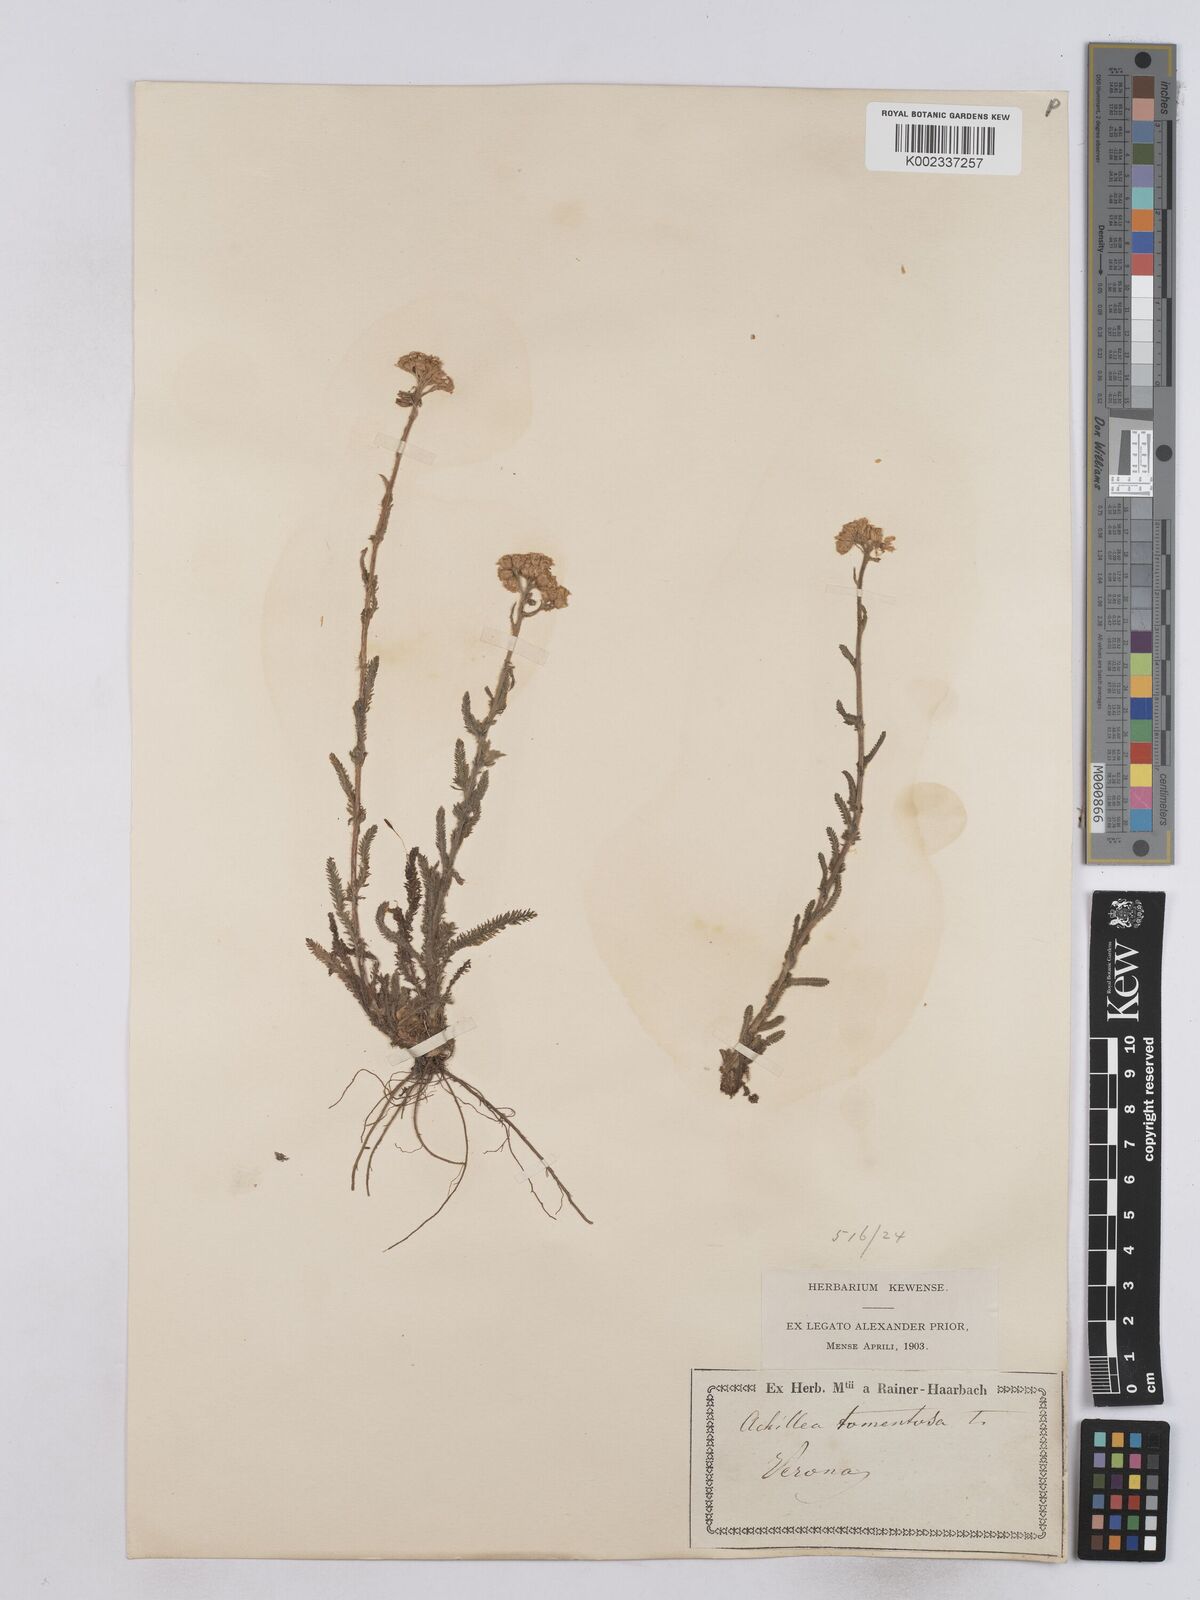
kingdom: Plantae
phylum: Tracheophyta
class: Magnoliopsida
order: Asterales
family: Asteraceae
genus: Achillea
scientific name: Achillea tomentosa
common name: Yellow milfoil
